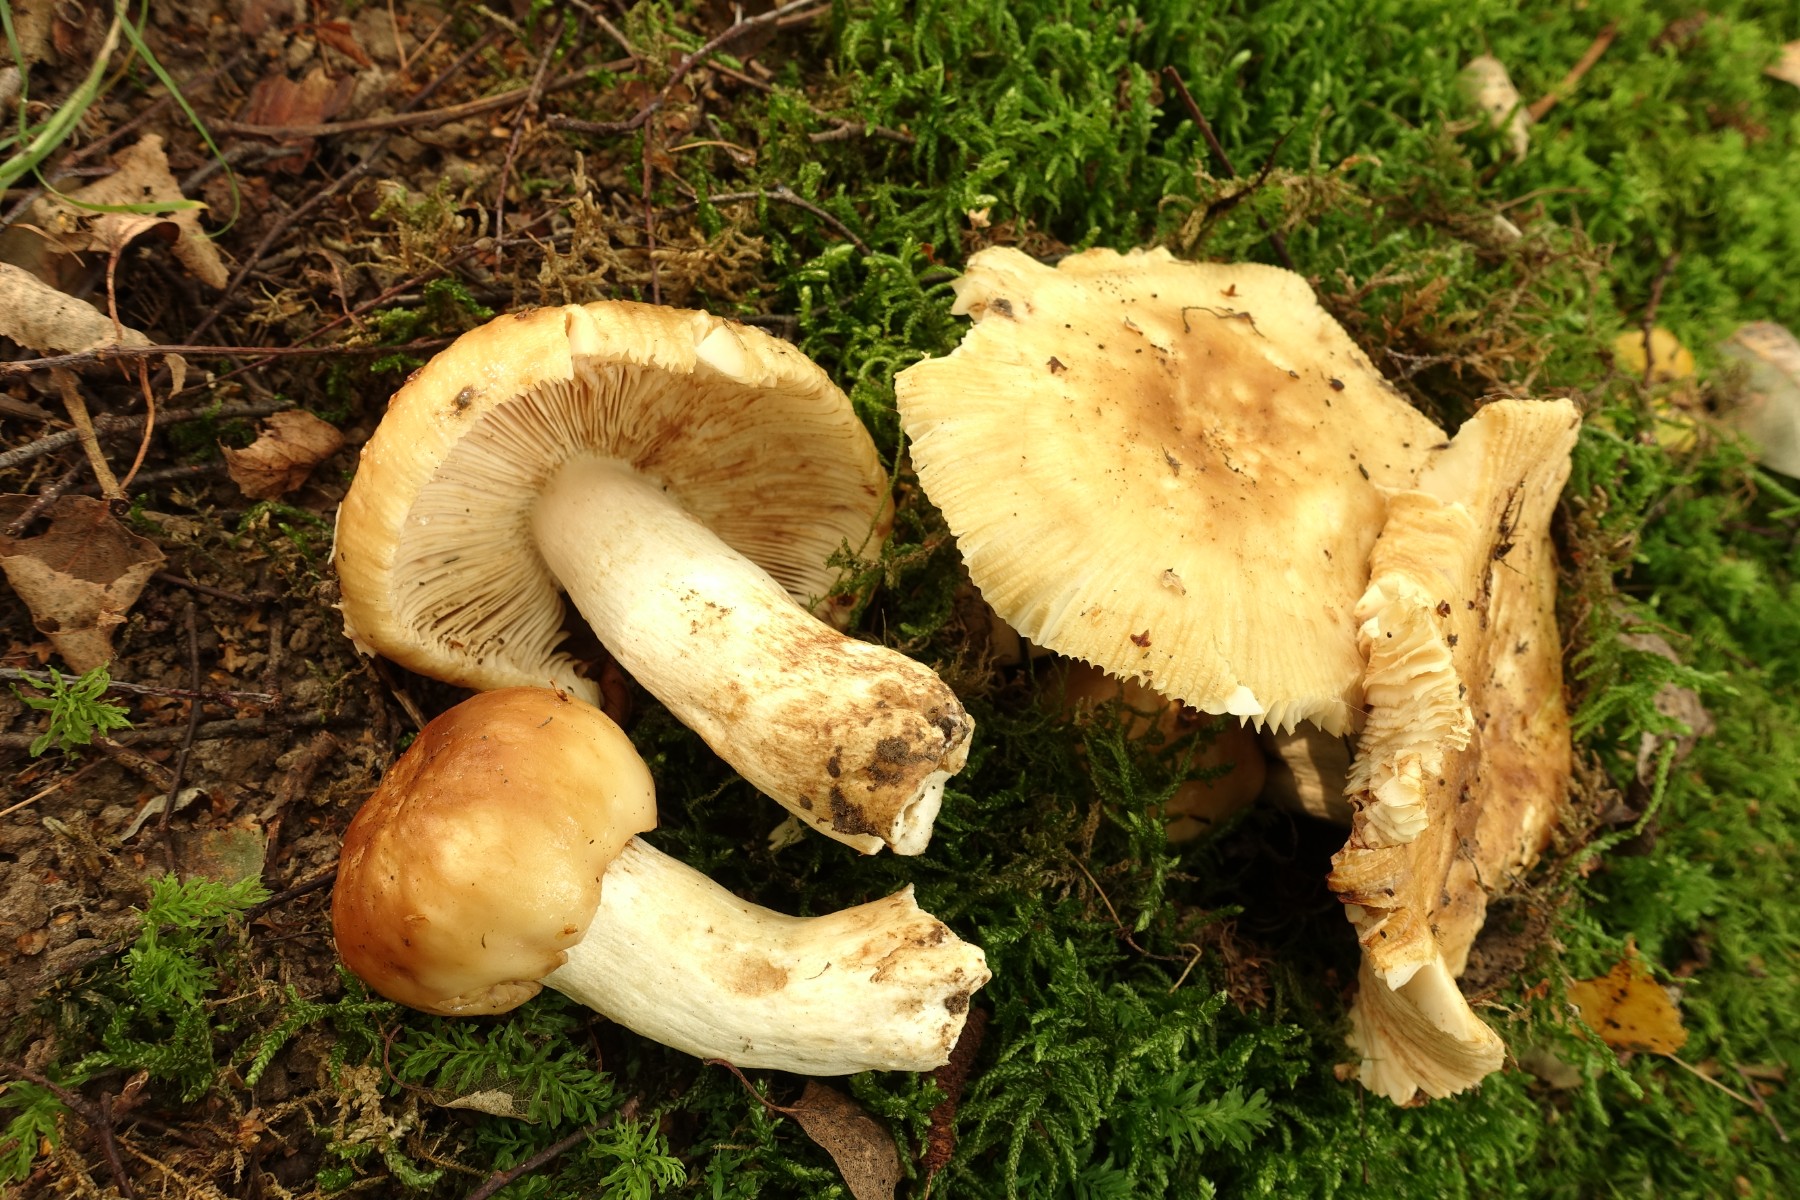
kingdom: Fungi
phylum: Basidiomycota
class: Agaricomycetes
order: Russulales
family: Russulaceae
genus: Russula
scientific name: Russula foetens
